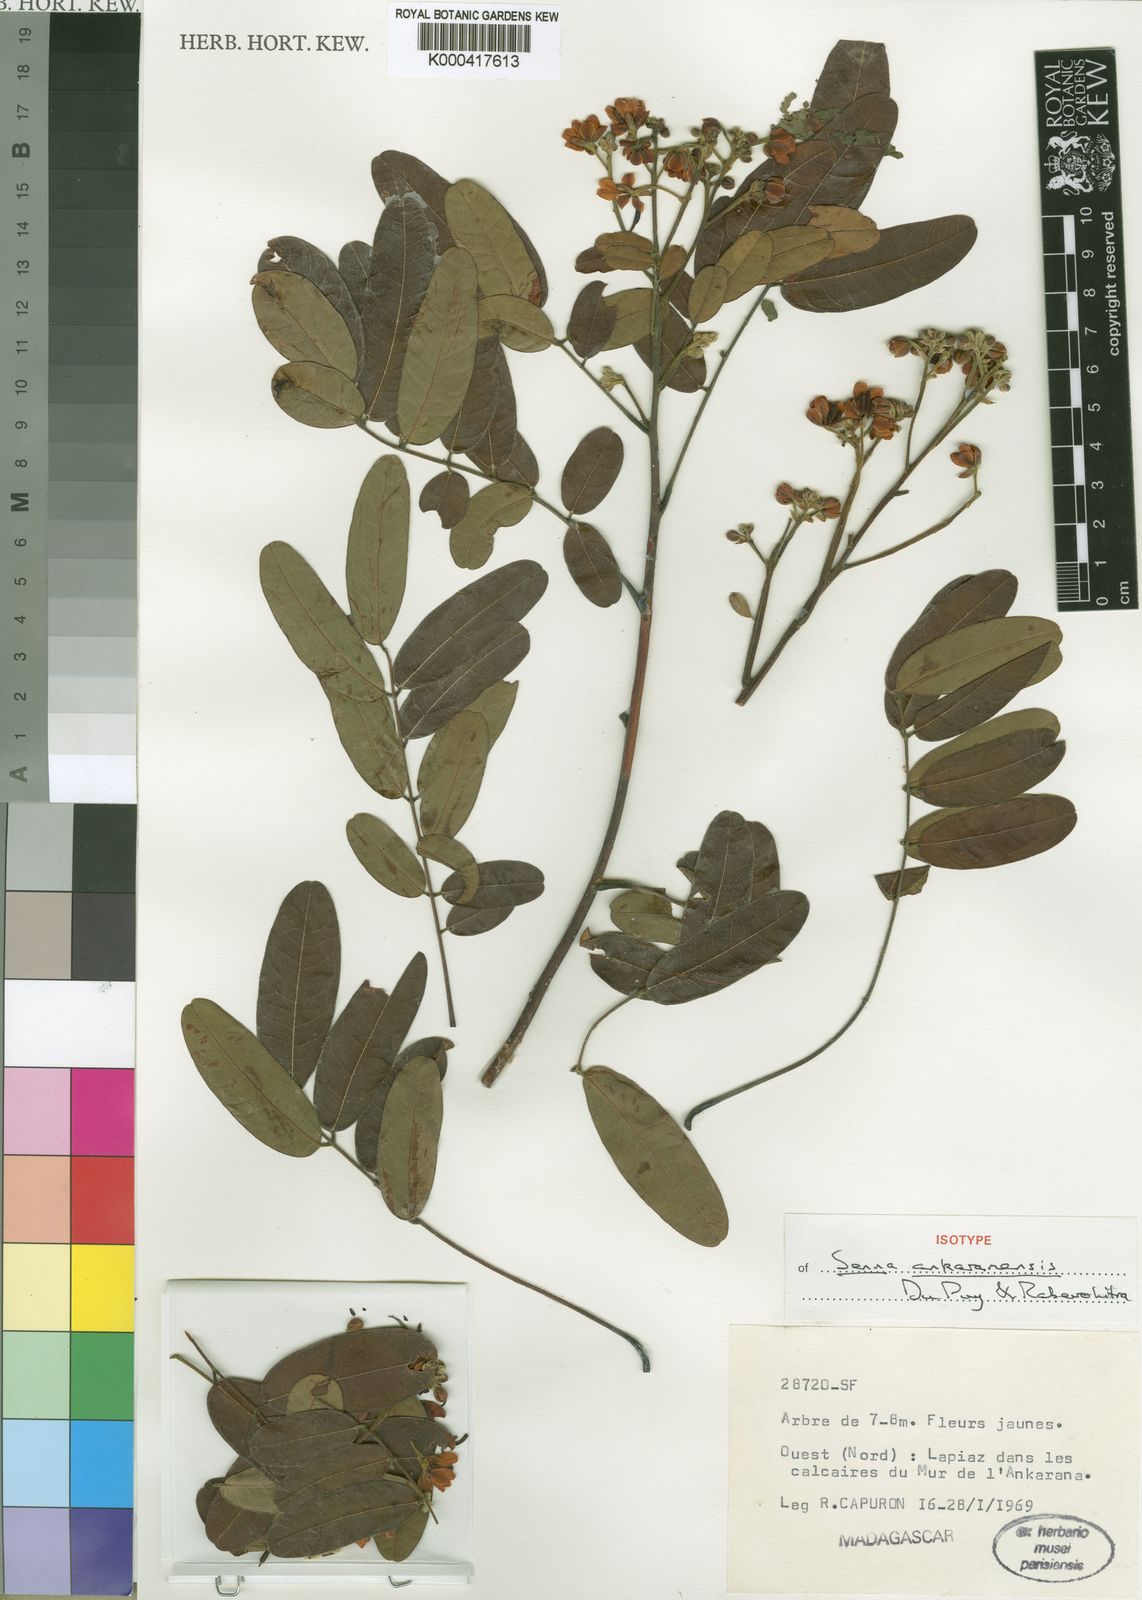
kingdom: Plantae
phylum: Tracheophyta
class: Magnoliopsida
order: Fabales
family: Fabaceae
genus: Senna
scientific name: Senna ankaranensis
